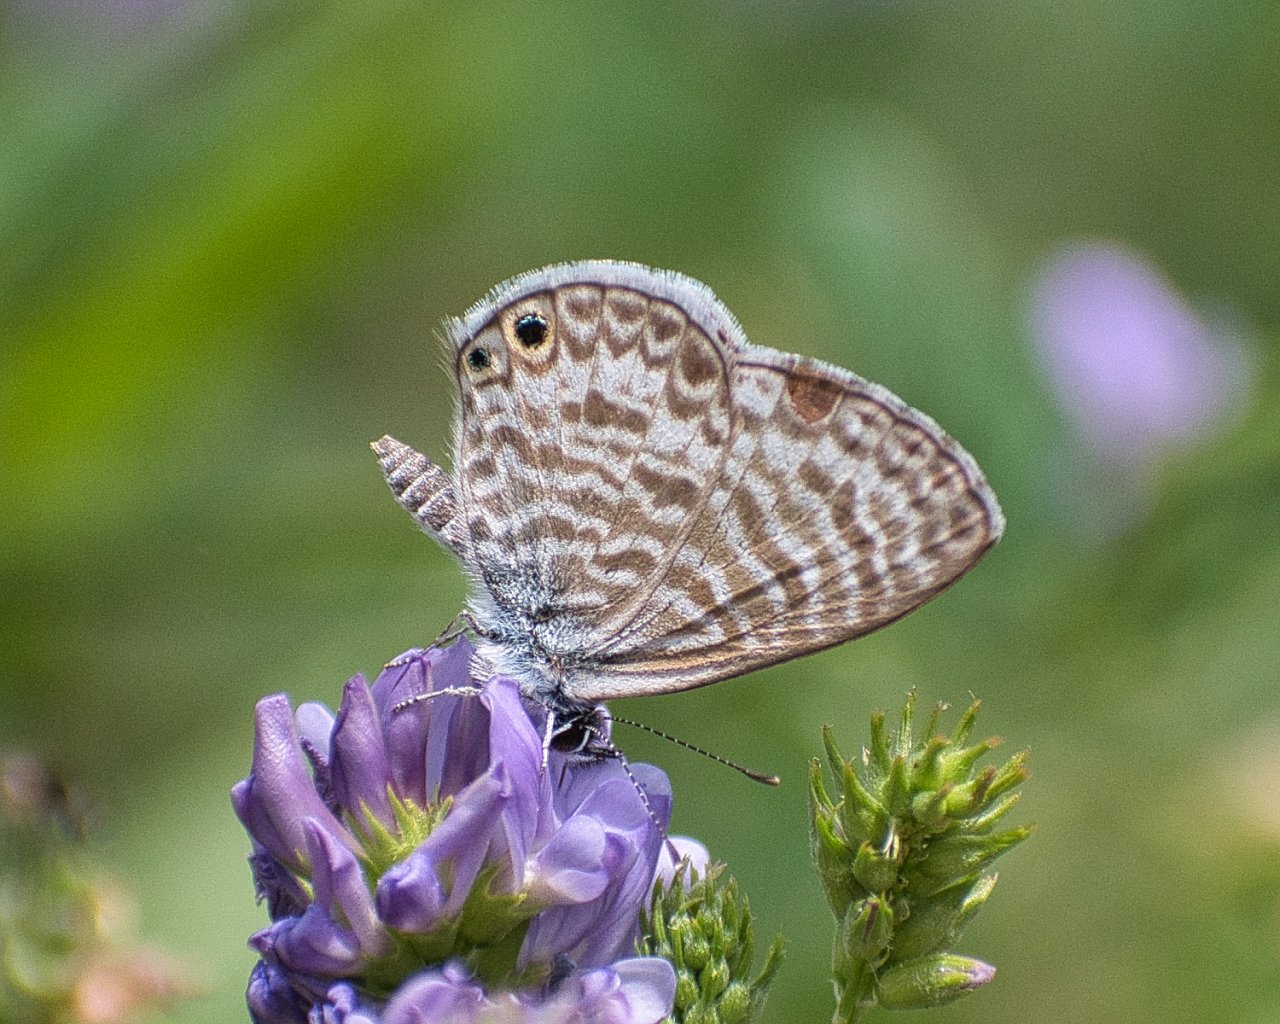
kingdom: Animalia
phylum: Arthropoda
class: Insecta
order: Lepidoptera
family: Lycaenidae
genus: Leptotes
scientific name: Leptotes marina
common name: Marine Blue
